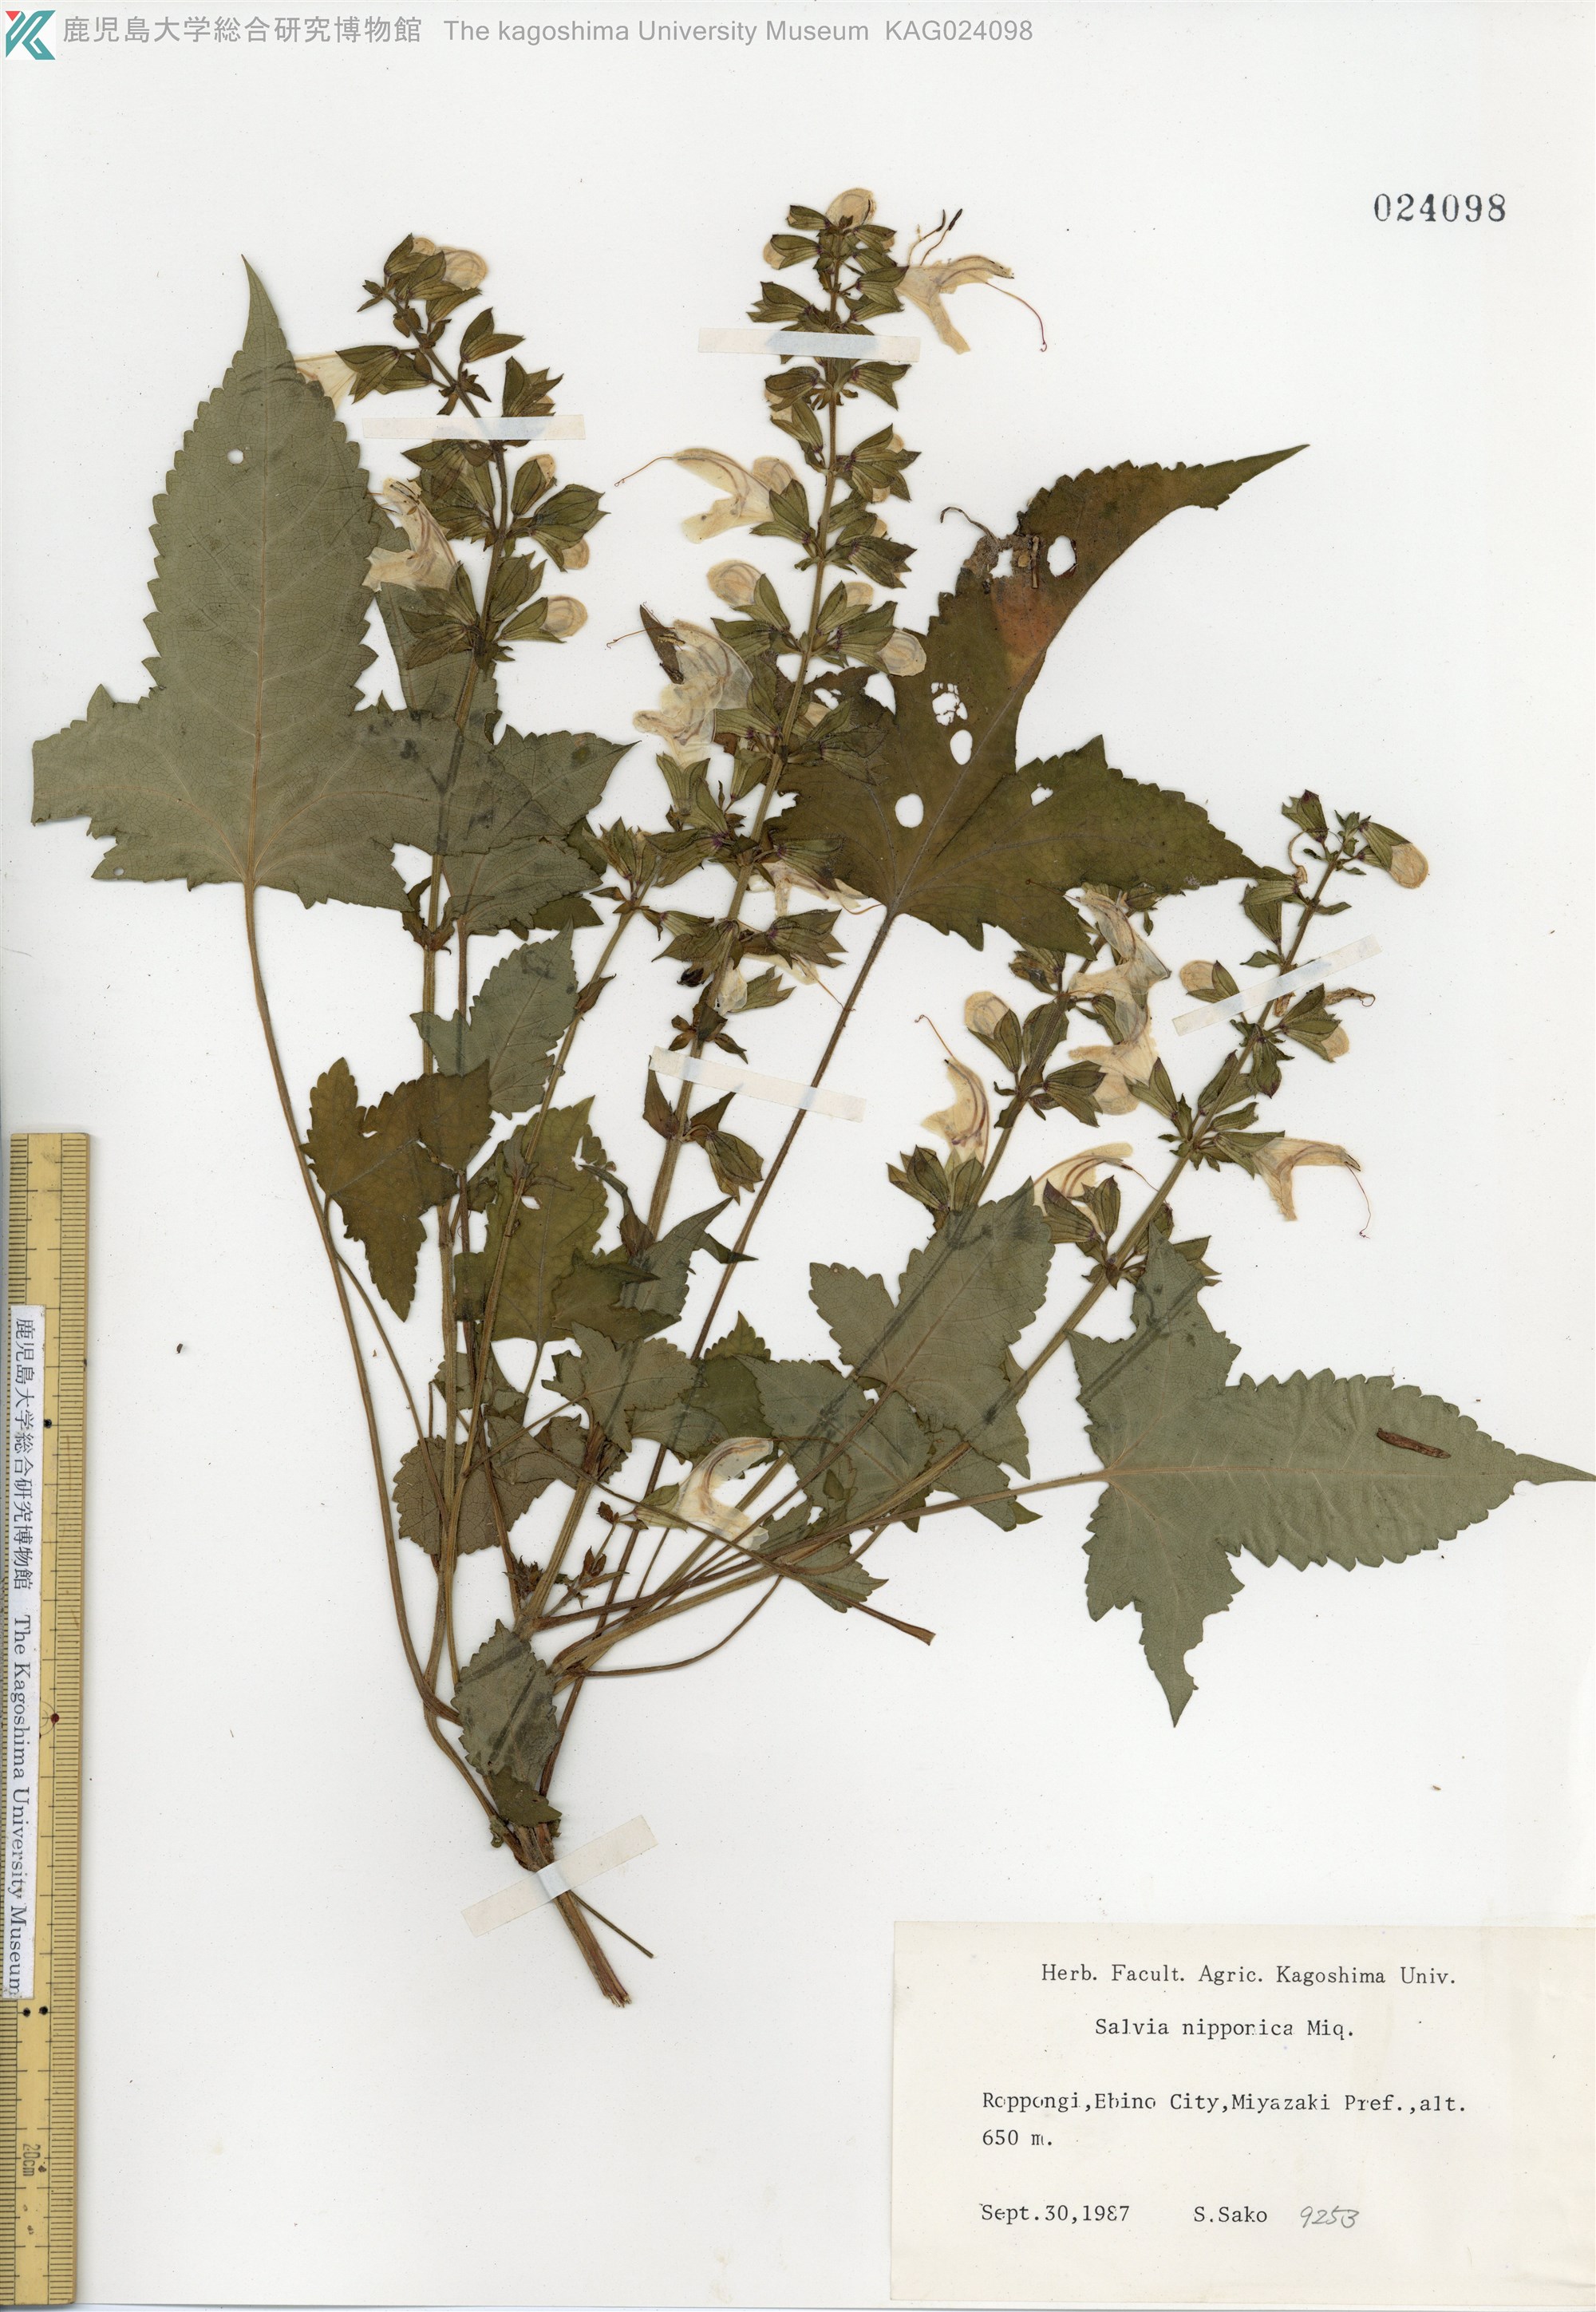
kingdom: Plantae
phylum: Tracheophyta
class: Magnoliopsida
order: Lamiales
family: Lamiaceae
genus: Salvia
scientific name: Salvia nipponica
